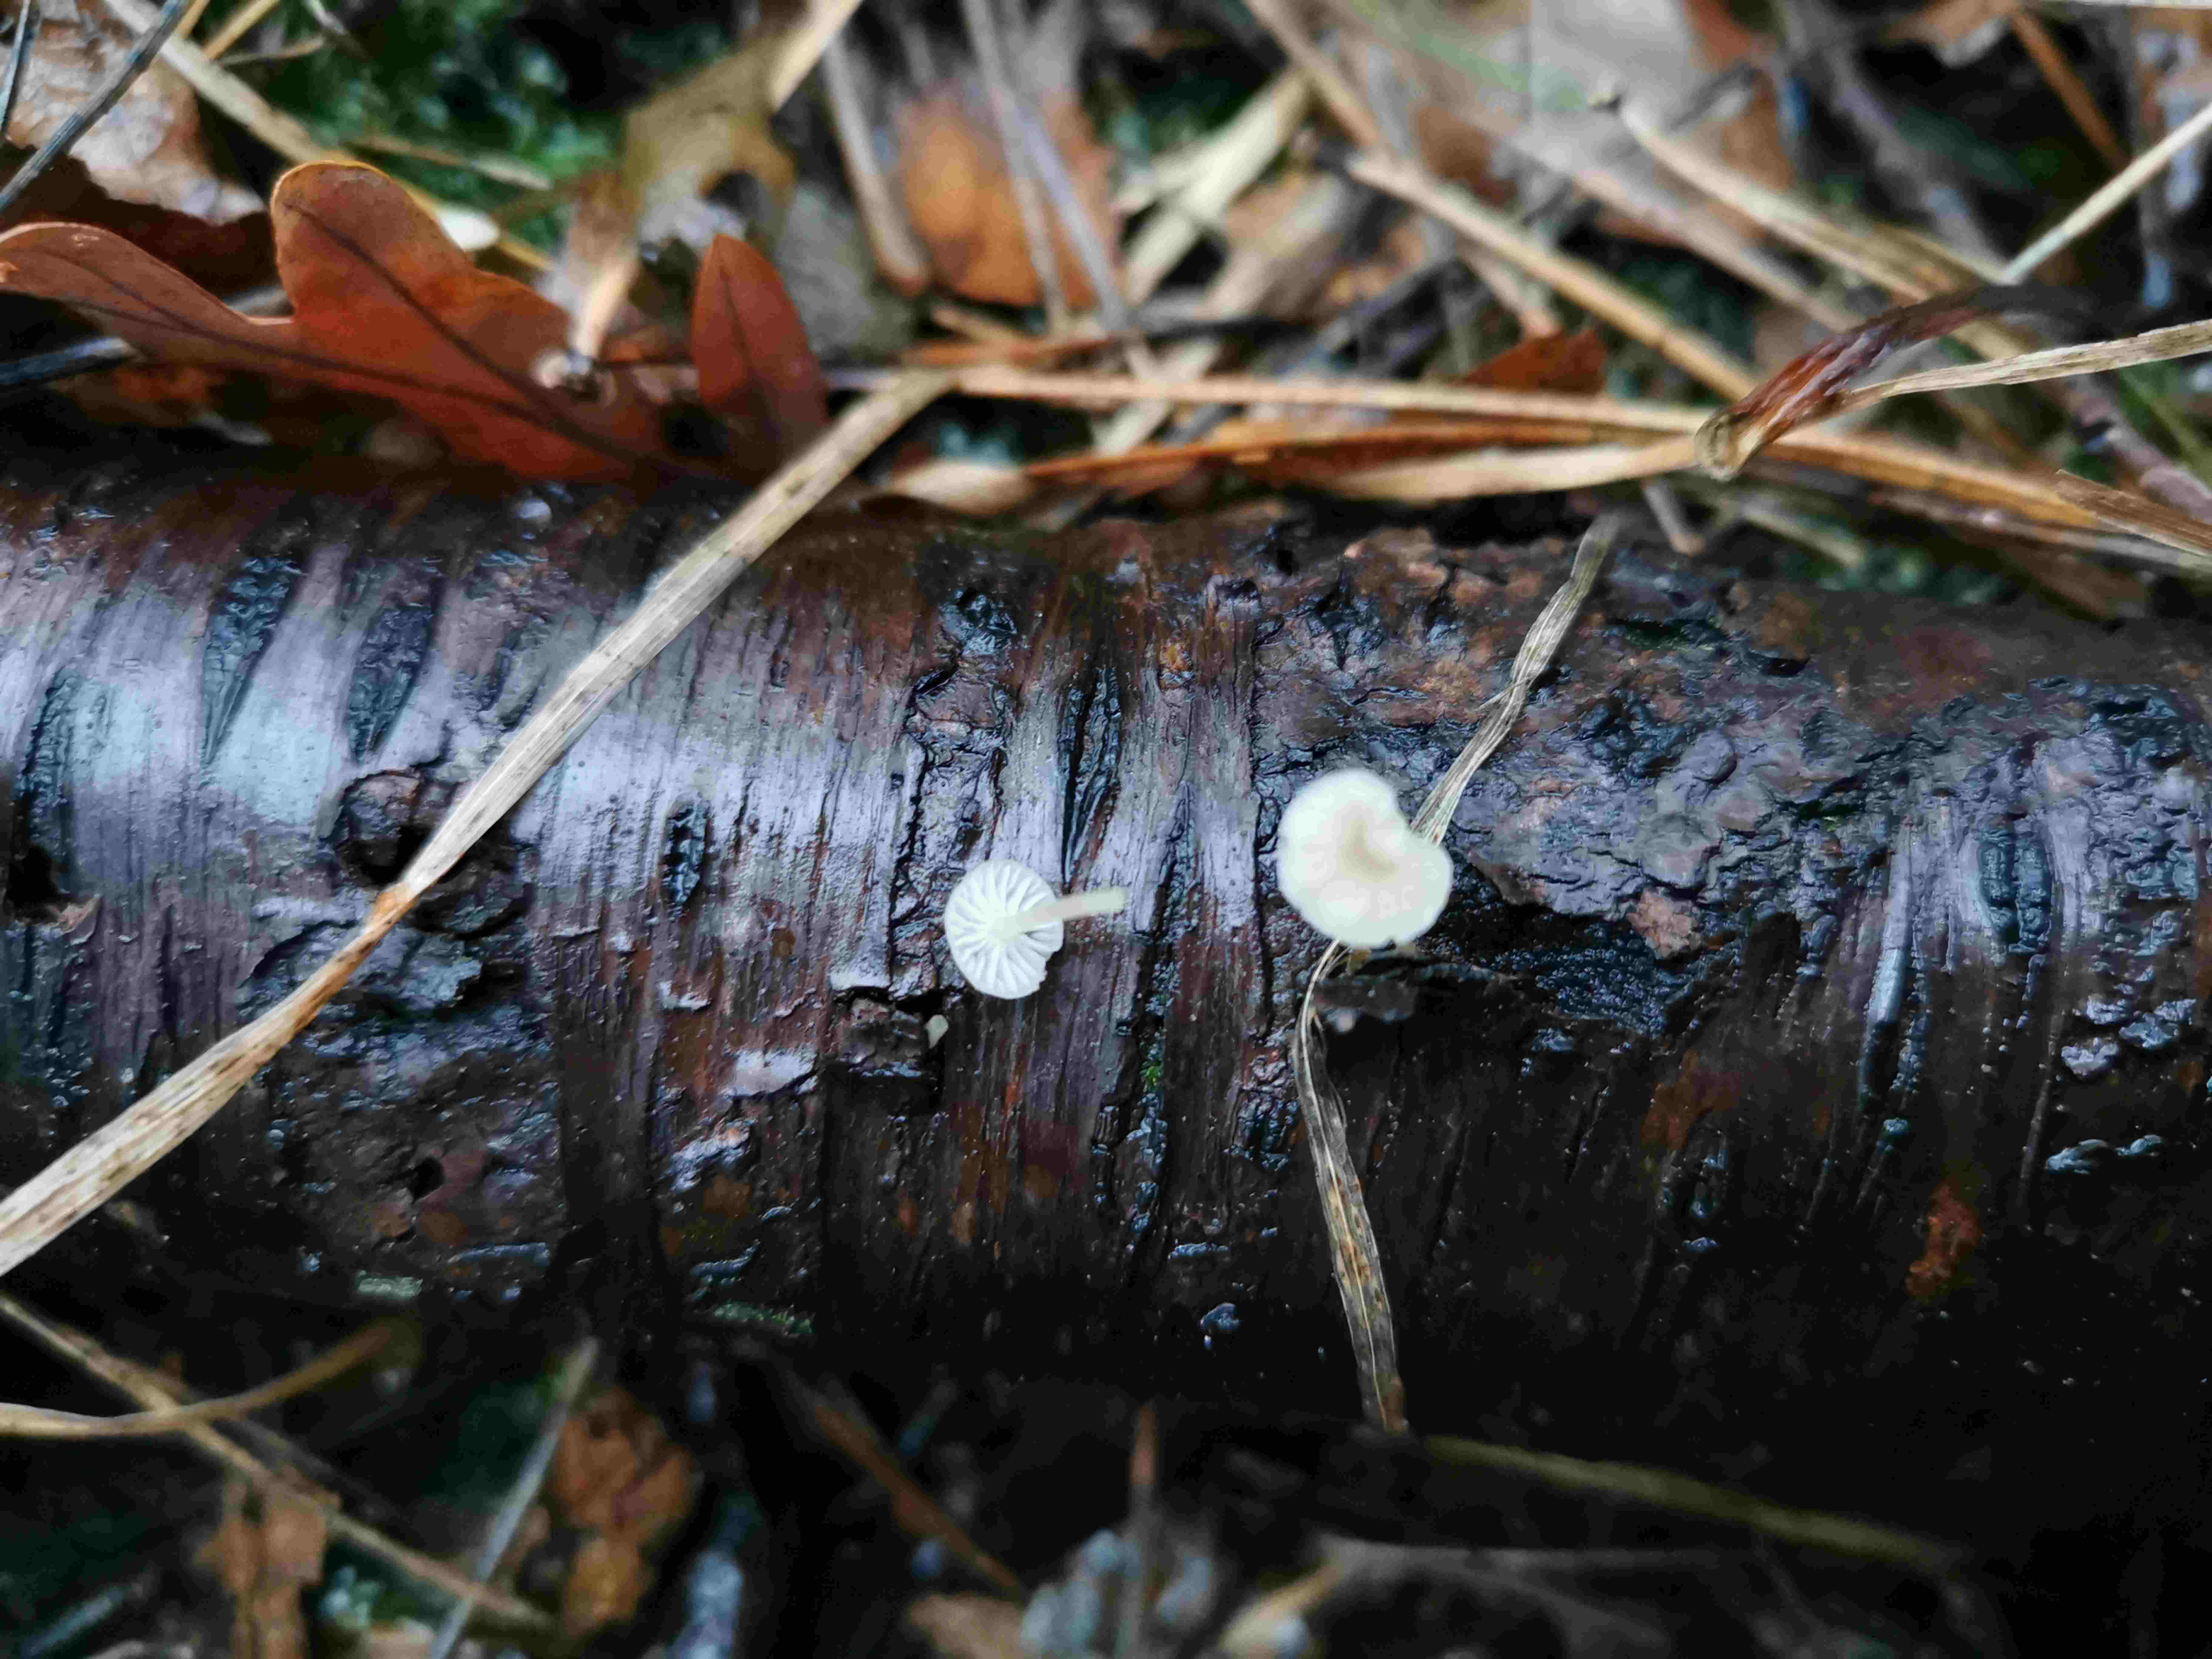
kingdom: Fungi
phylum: Basidiomycota
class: Agaricomycetes
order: Agaricales
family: Porotheleaceae
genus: Phloeomana
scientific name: Phloeomana speirea
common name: kvist-huesvamp
